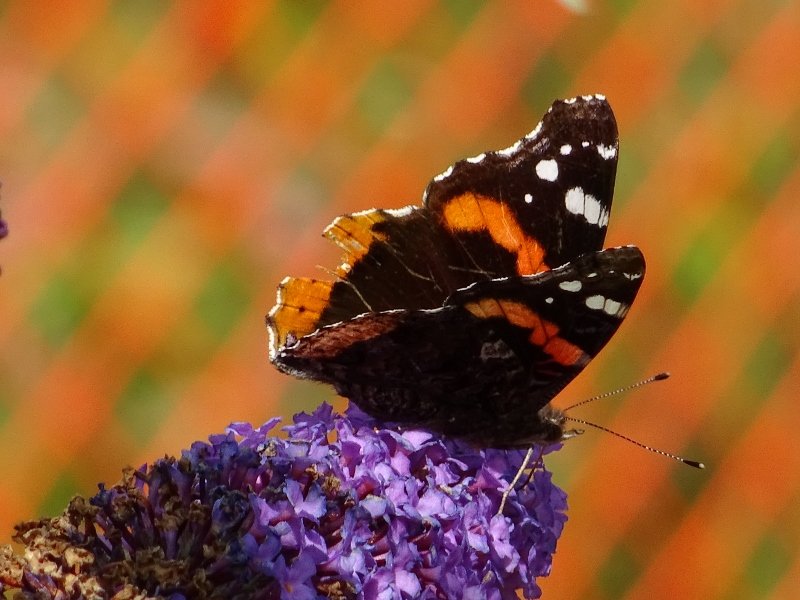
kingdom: Animalia
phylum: Arthropoda
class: Insecta
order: Lepidoptera
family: Nymphalidae
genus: Vanessa
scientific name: Vanessa atalanta
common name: Red Admiral
